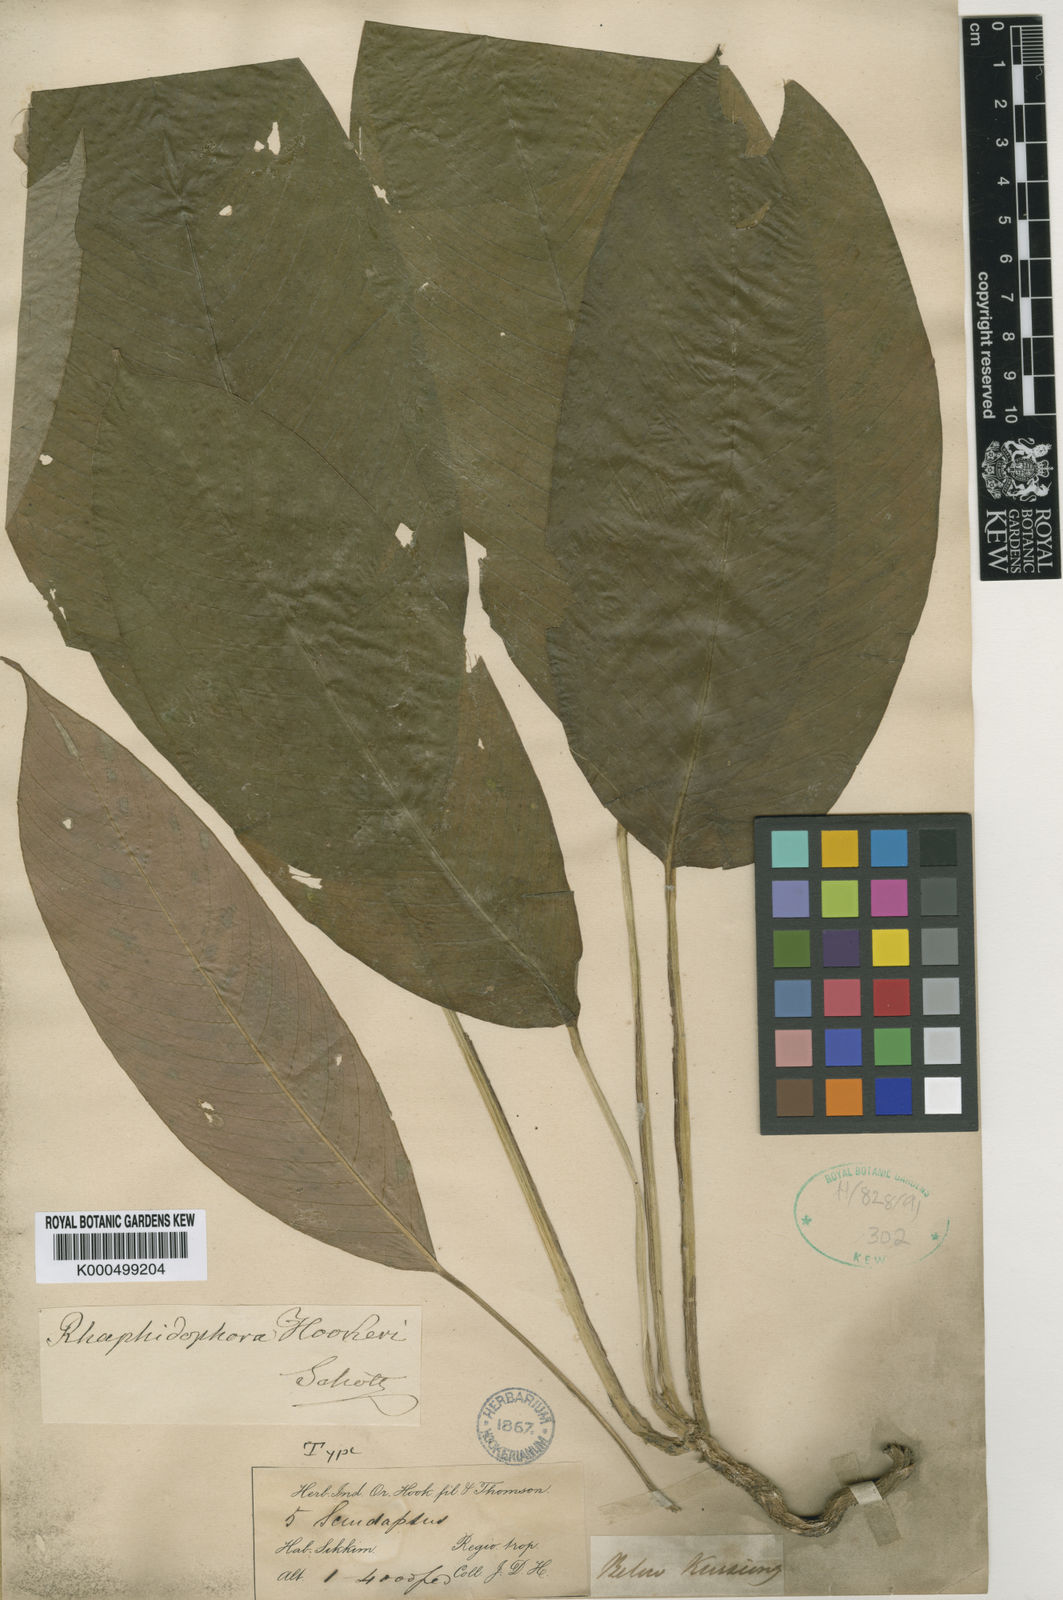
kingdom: Plantae
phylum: Tracheophyta
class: Liliopsida
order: Alismatales
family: Araceae
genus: Rhaphidophora
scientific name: Rhaphidophora hookeri
